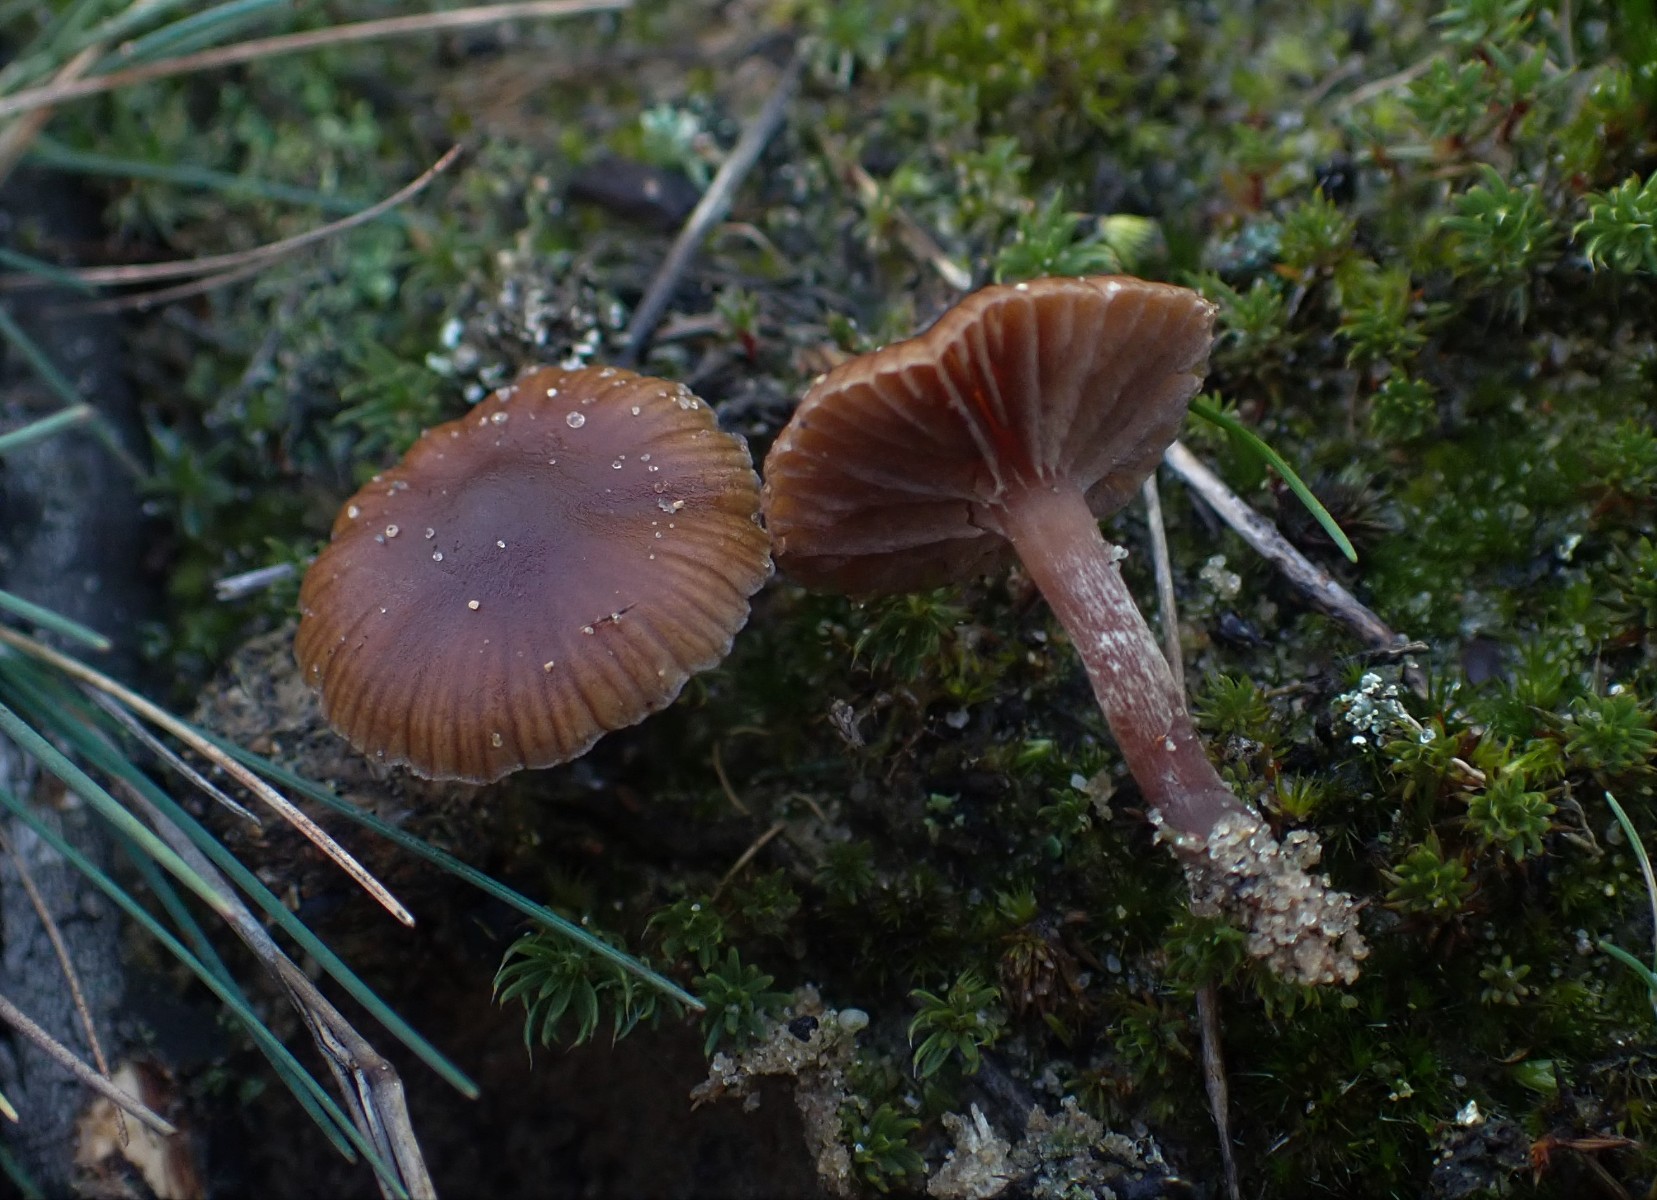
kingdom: Fungi
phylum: Basidiomycota
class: Agaricomycetes
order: Agaricales
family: Strophariaceae
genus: Deconica
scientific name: Deconica montana
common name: rødbrun stråhat
